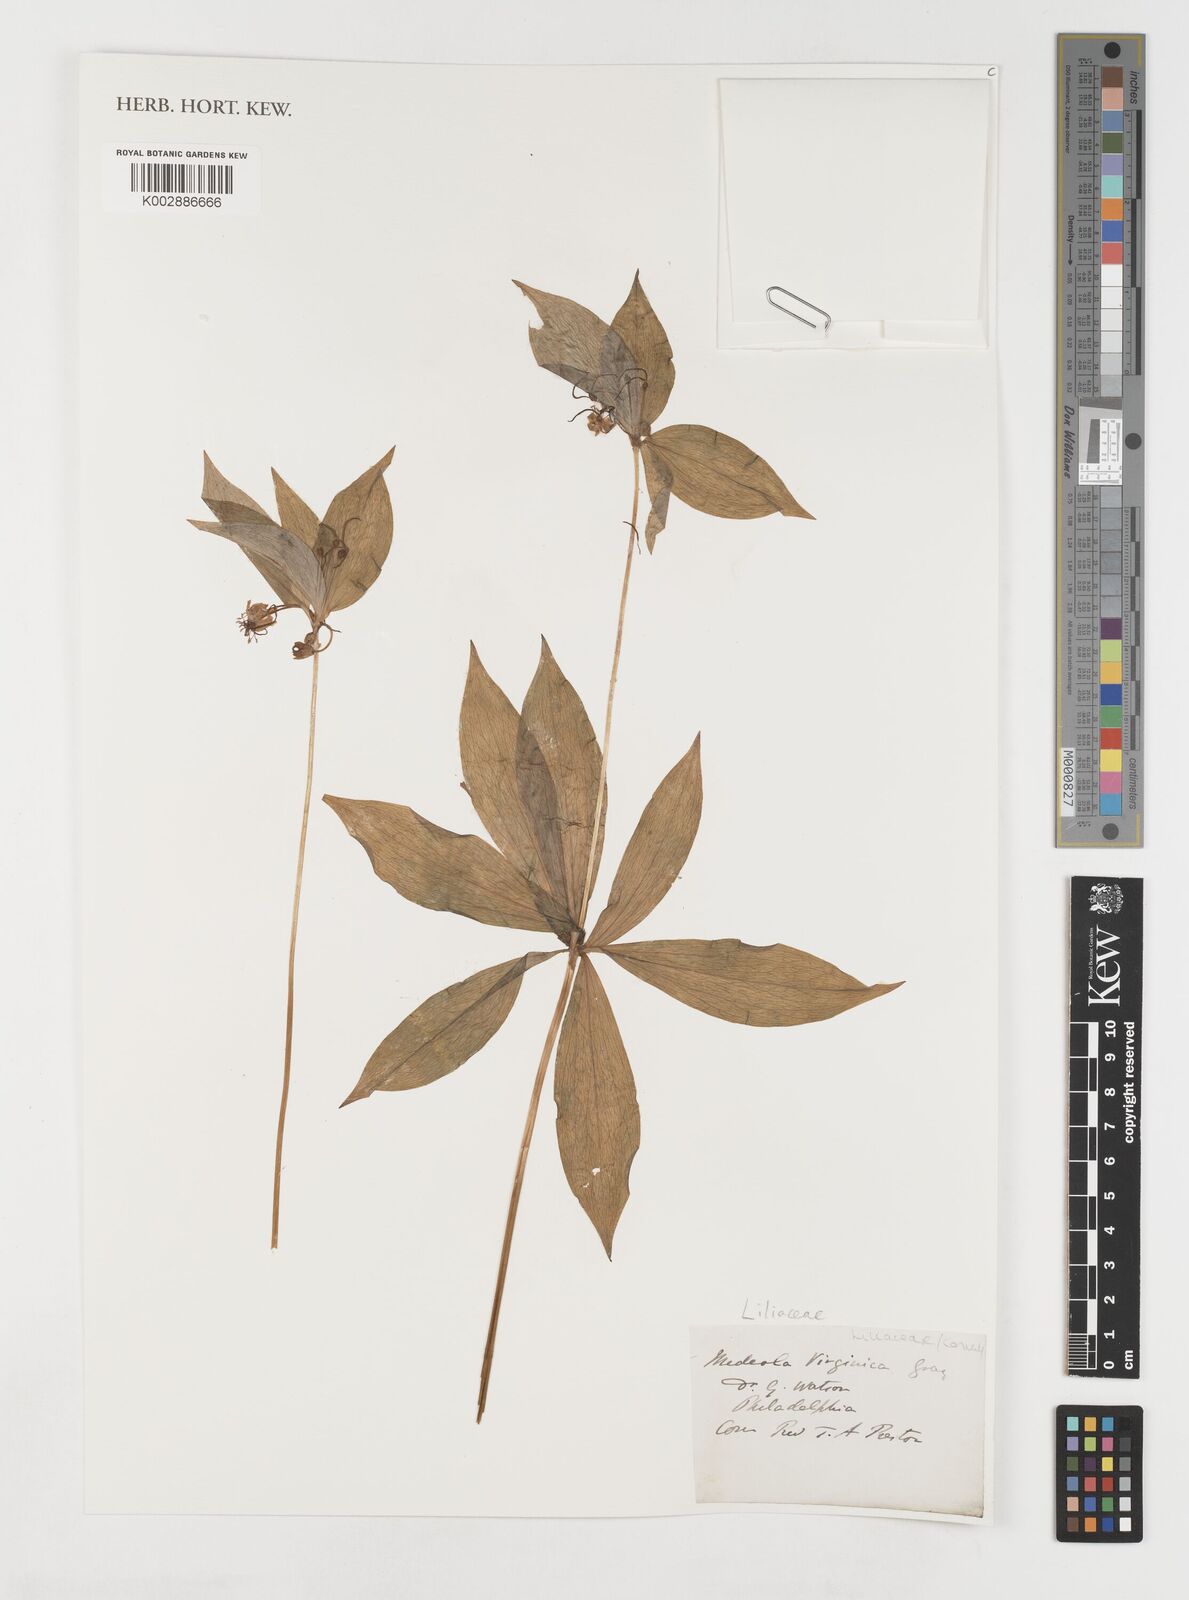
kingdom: Plantae
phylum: Tracheophyta
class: Liliopsida
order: Liliales
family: Liliaceae
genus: Medeola
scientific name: Medeola virginiana
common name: Indian cucumber-root
